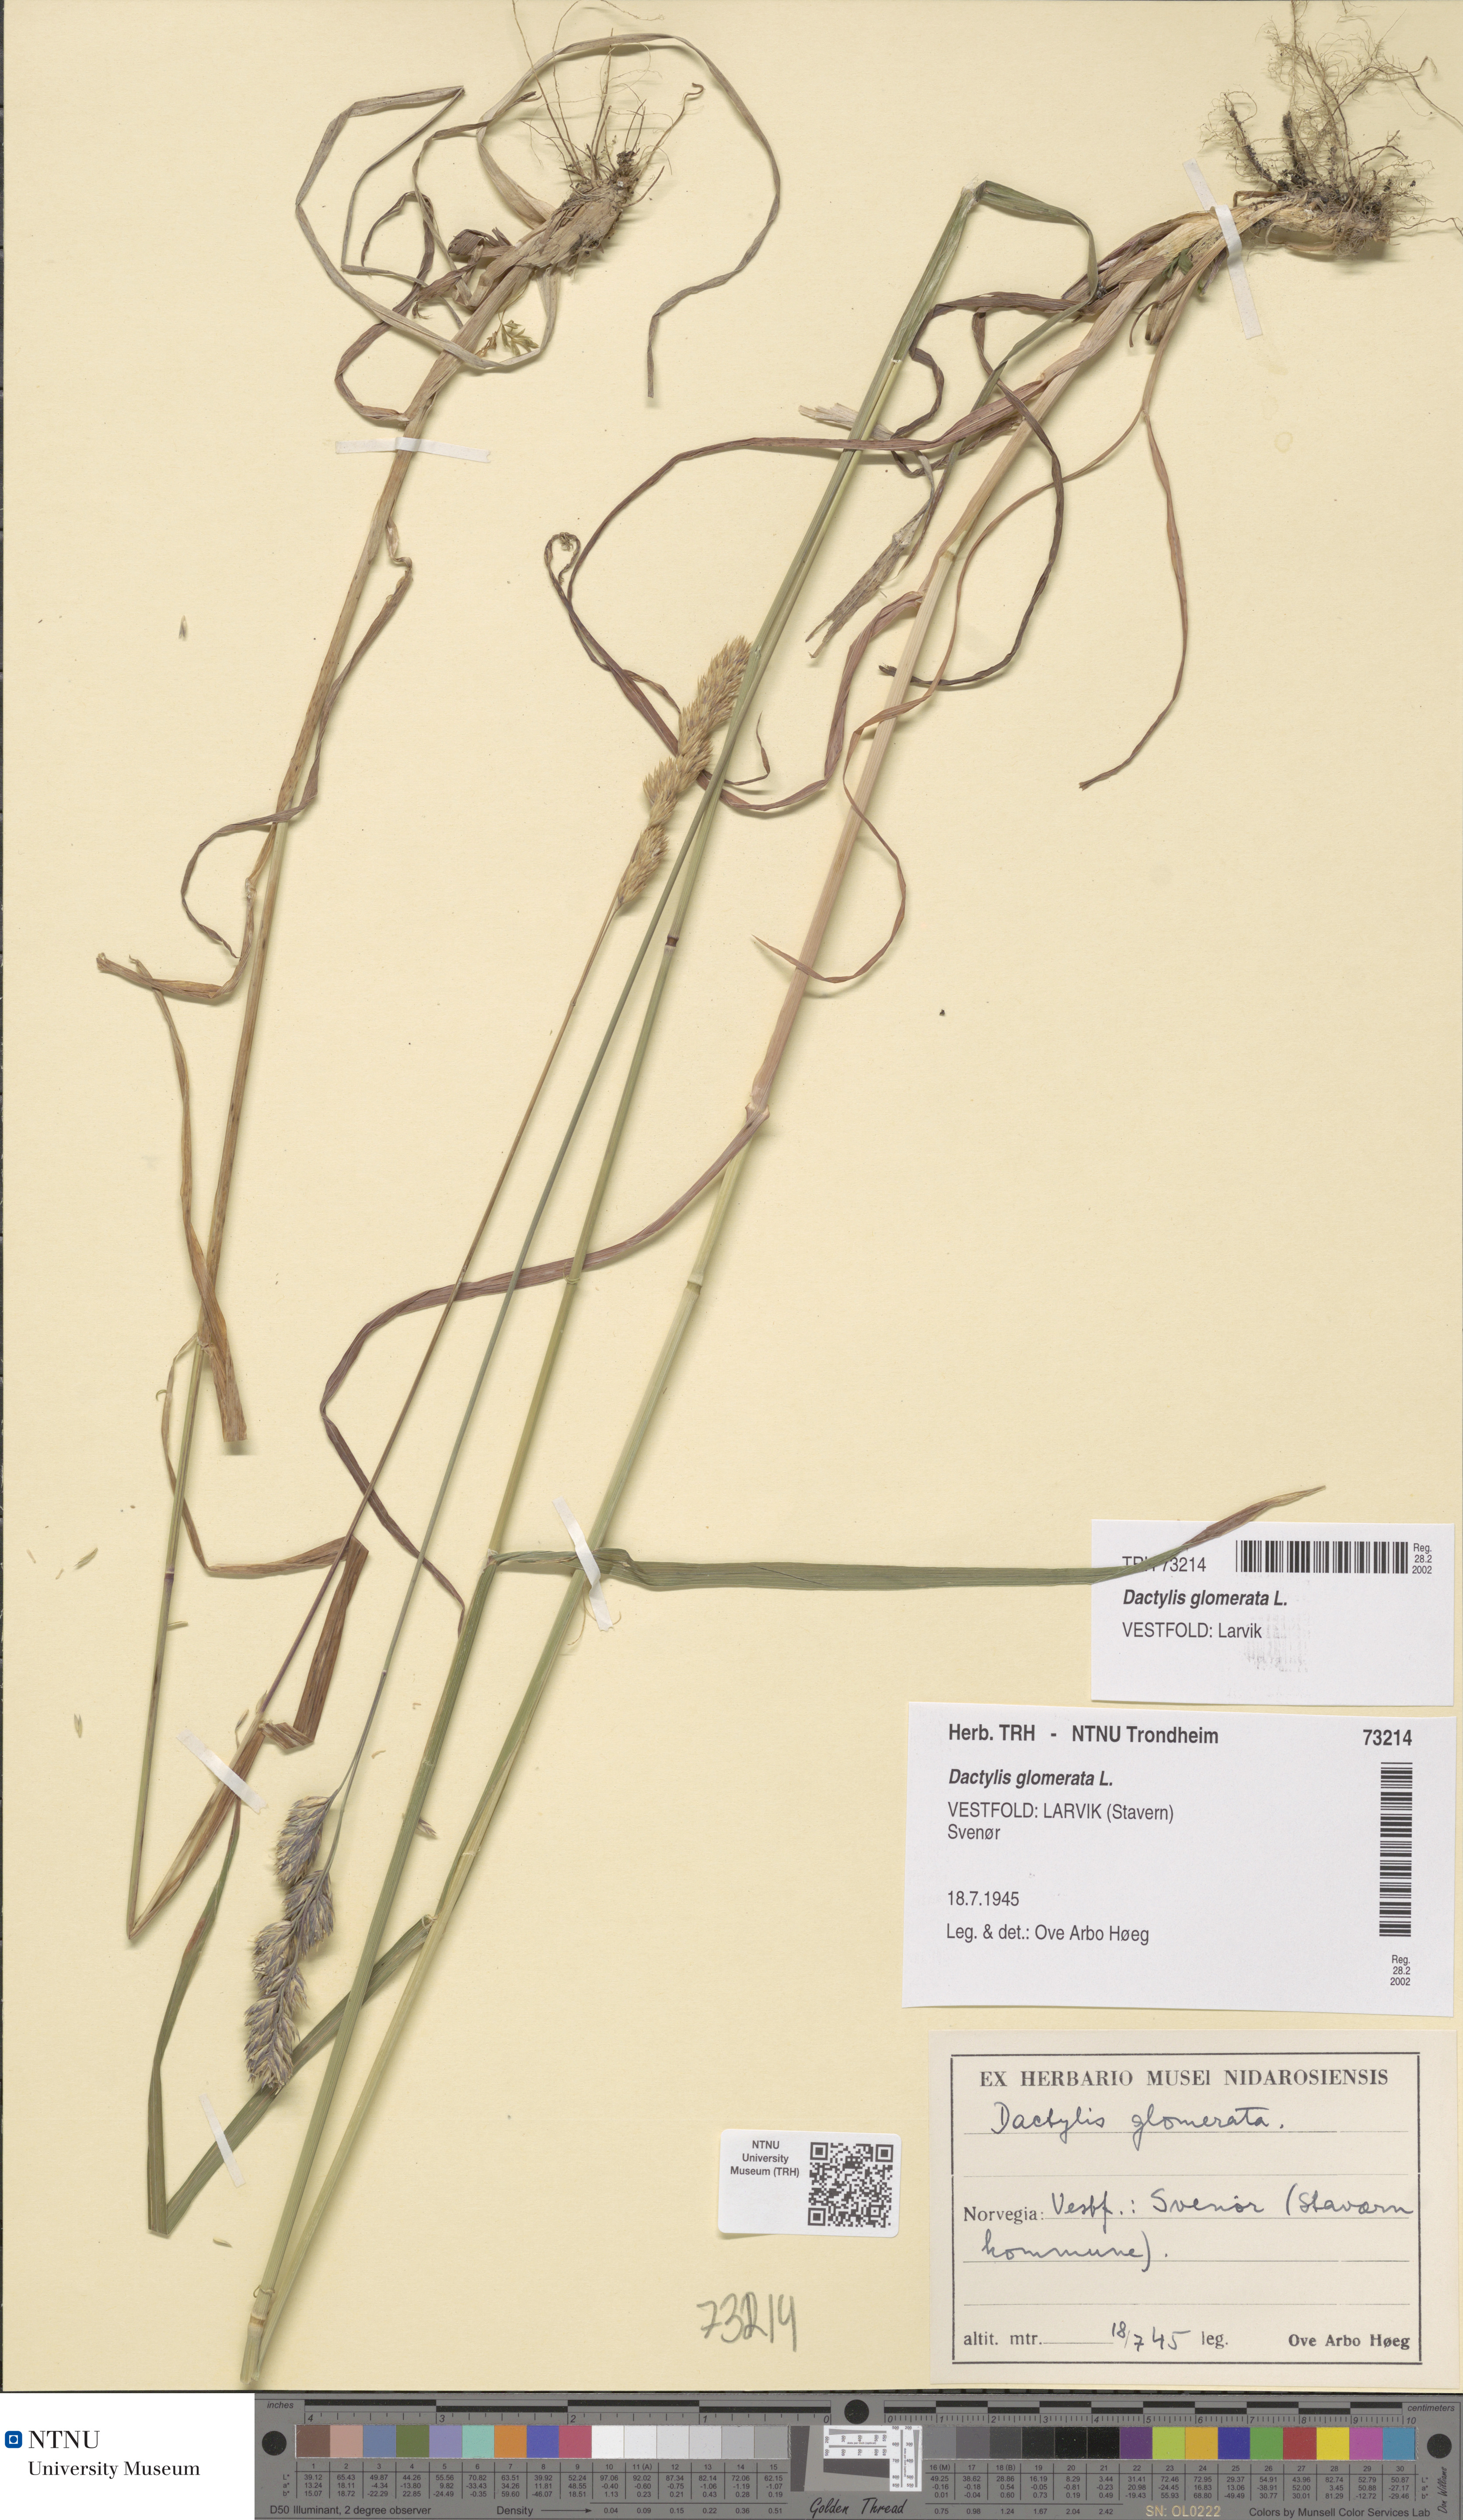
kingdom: Plantae
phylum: Tracheophyta
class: Liliopsida
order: Poales
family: Poaceae
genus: Dactylis
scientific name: Dactylis glomerata
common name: Orchardgrass
